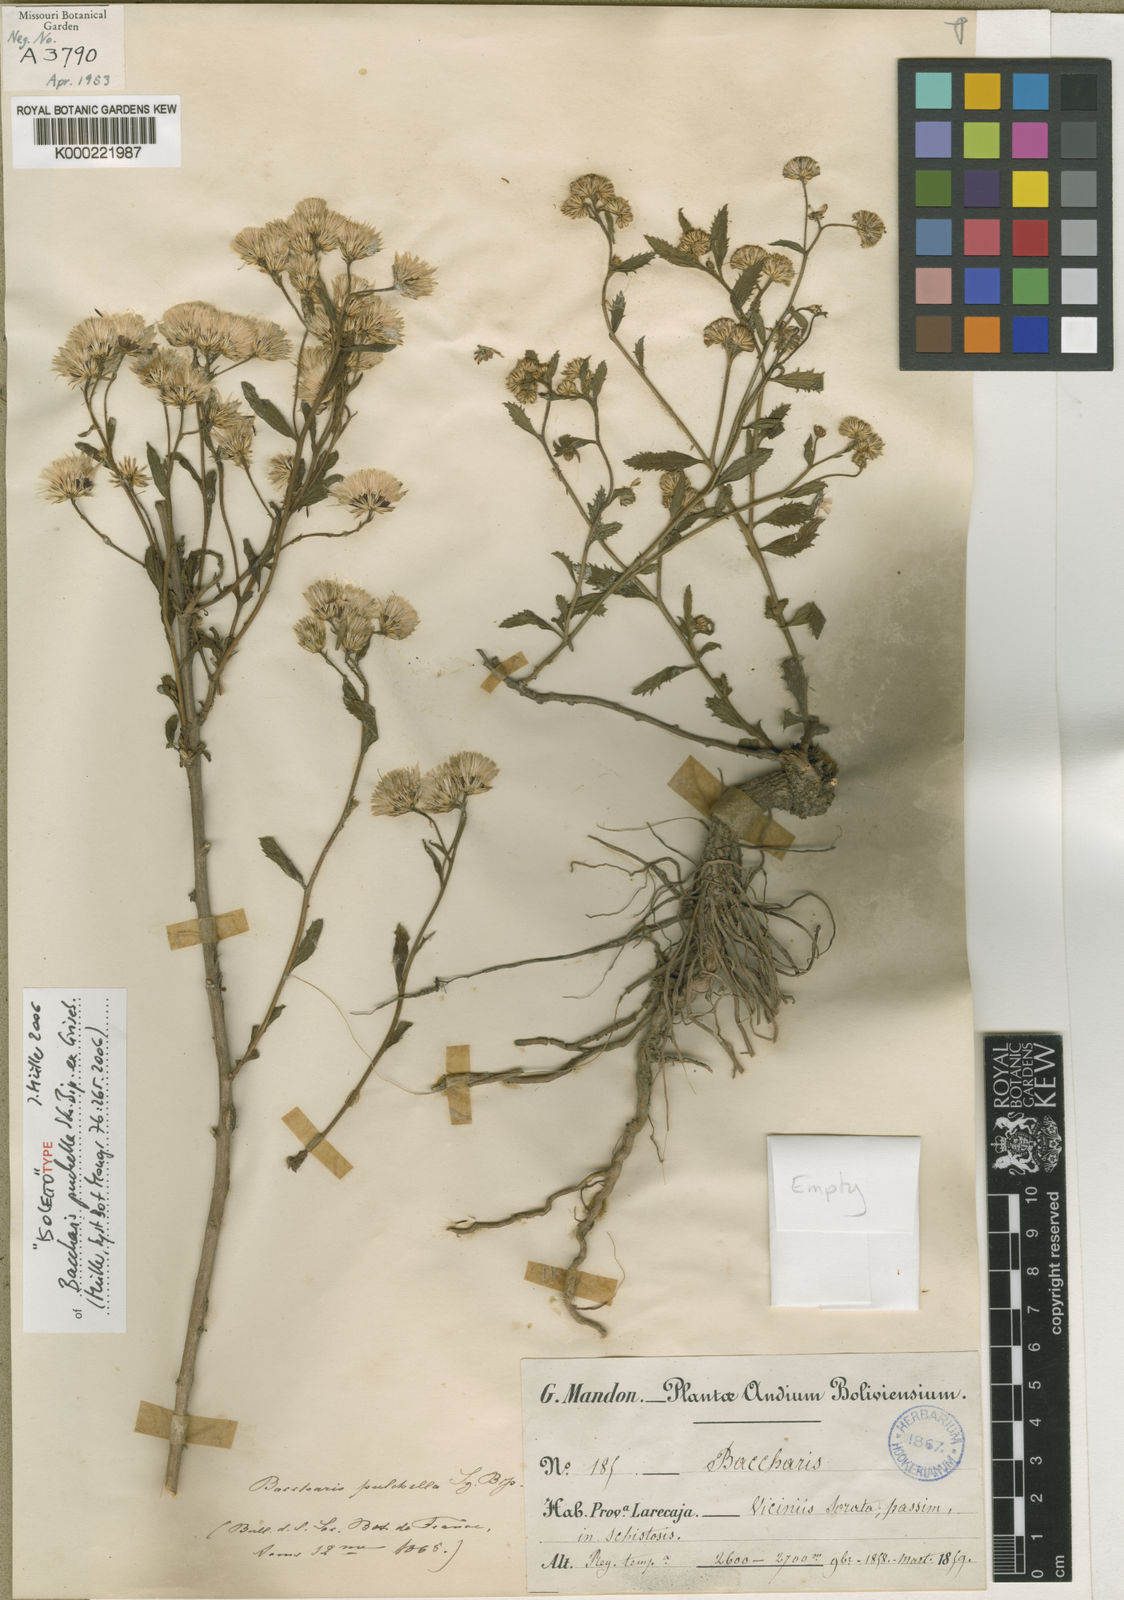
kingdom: Plantae
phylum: Tracheophyta
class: Magnoliopsida
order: Asterales
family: Asteraceae
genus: Baccharis
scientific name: Baccharis
